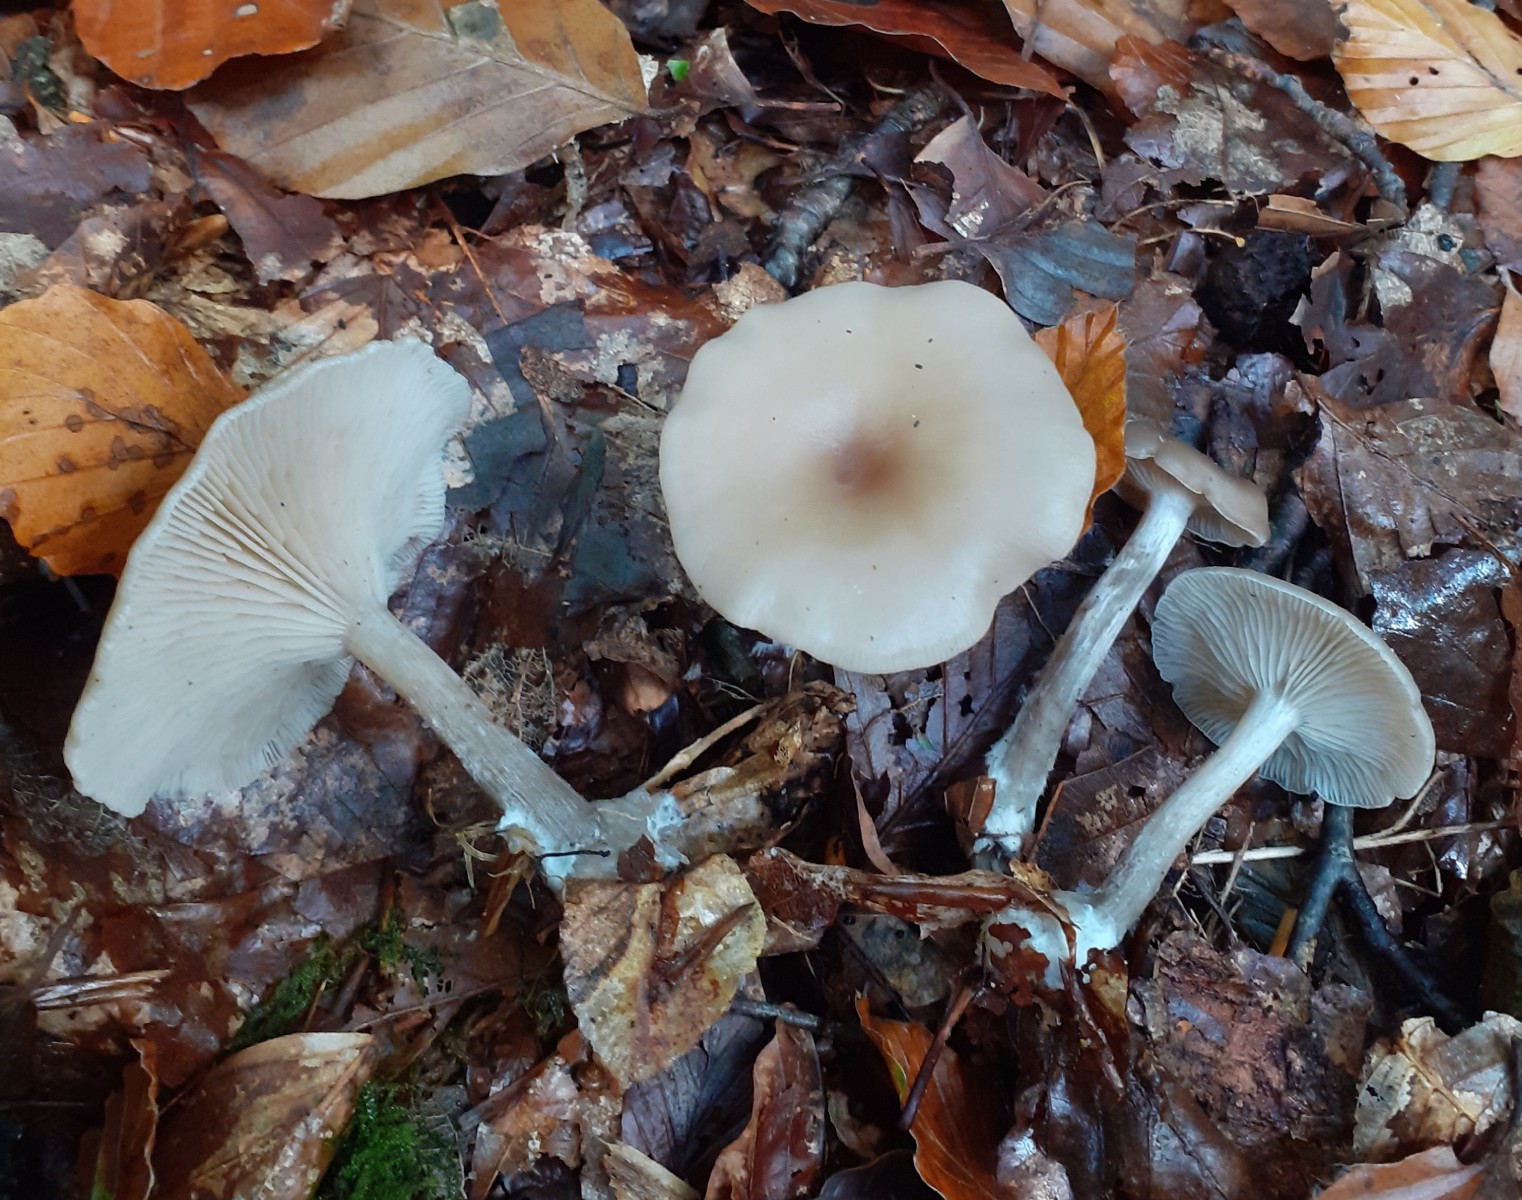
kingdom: Fungi
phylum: Basidiomycota
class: Agaricomycetes
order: Agaricales
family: Tricholomataceae
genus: Clitocybe
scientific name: Clitocybe metachroa
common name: grå tragthat
